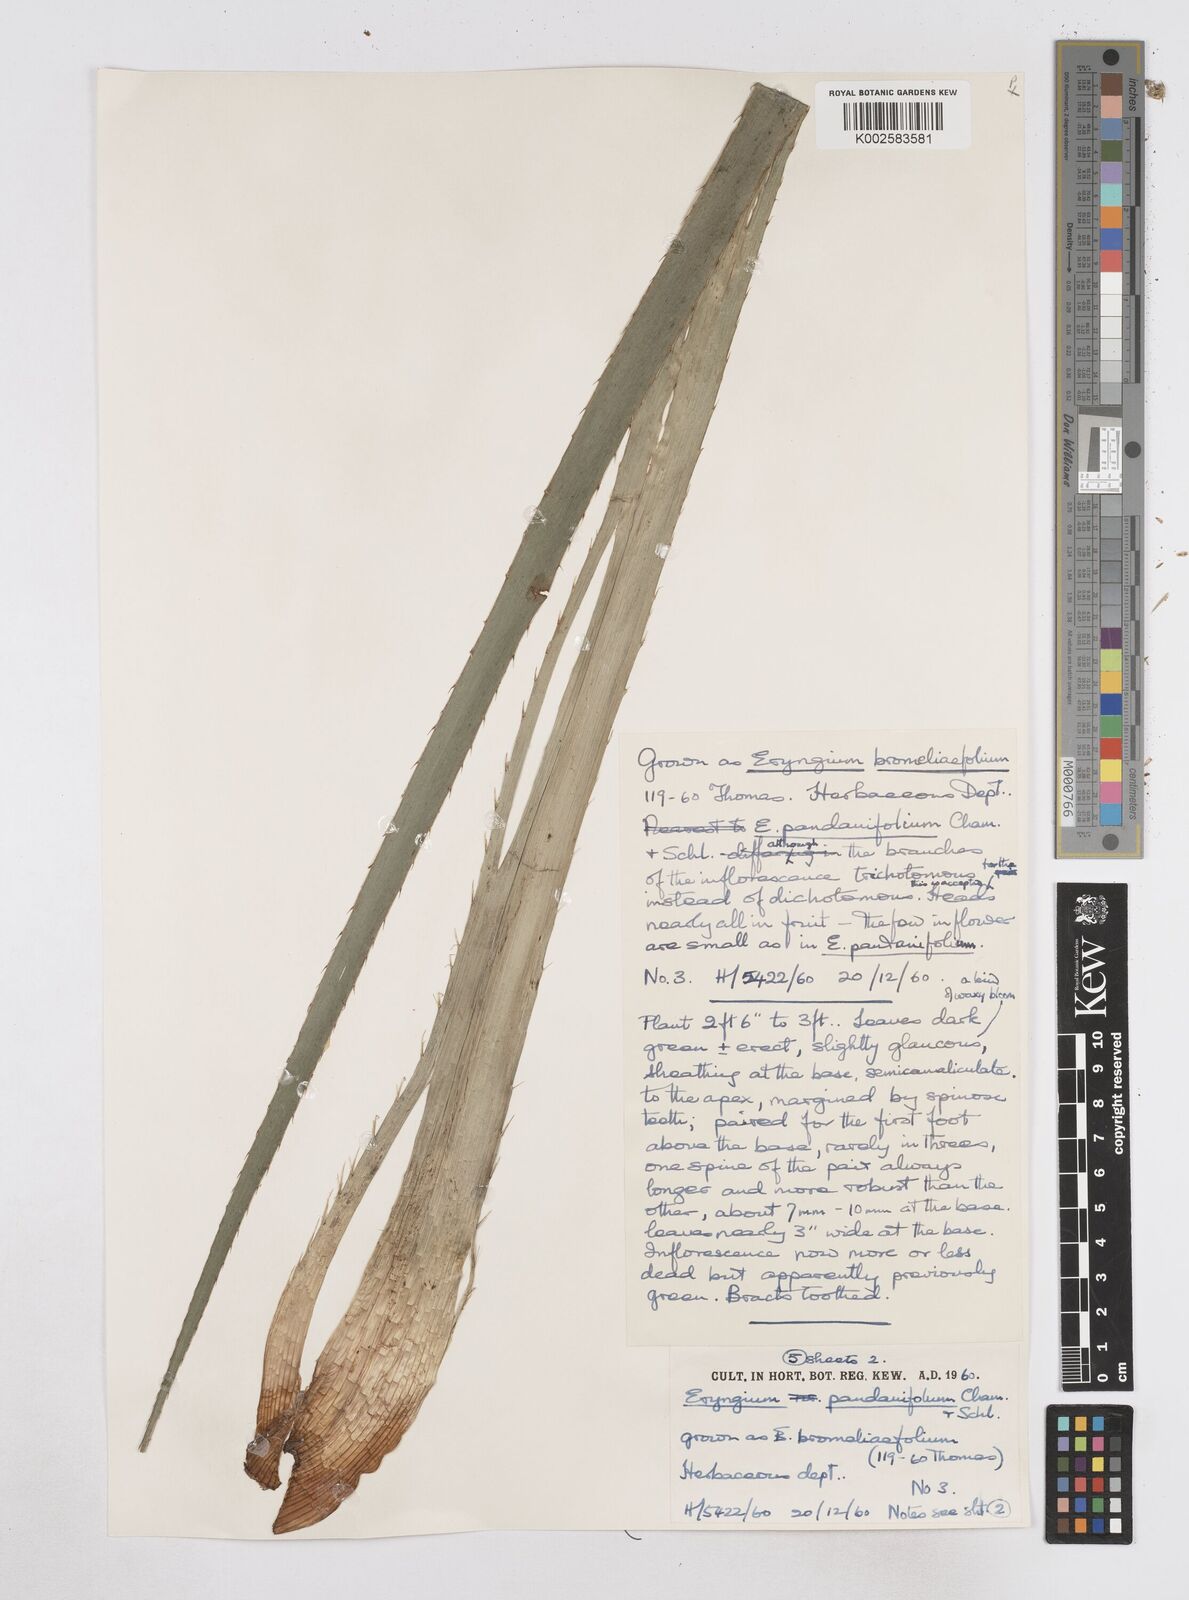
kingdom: Plantae
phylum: Tracheophyta
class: Magnoliopsida
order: Apiales
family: Apiaceae
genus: Eryngium
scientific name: Eryngium pandanifolium
